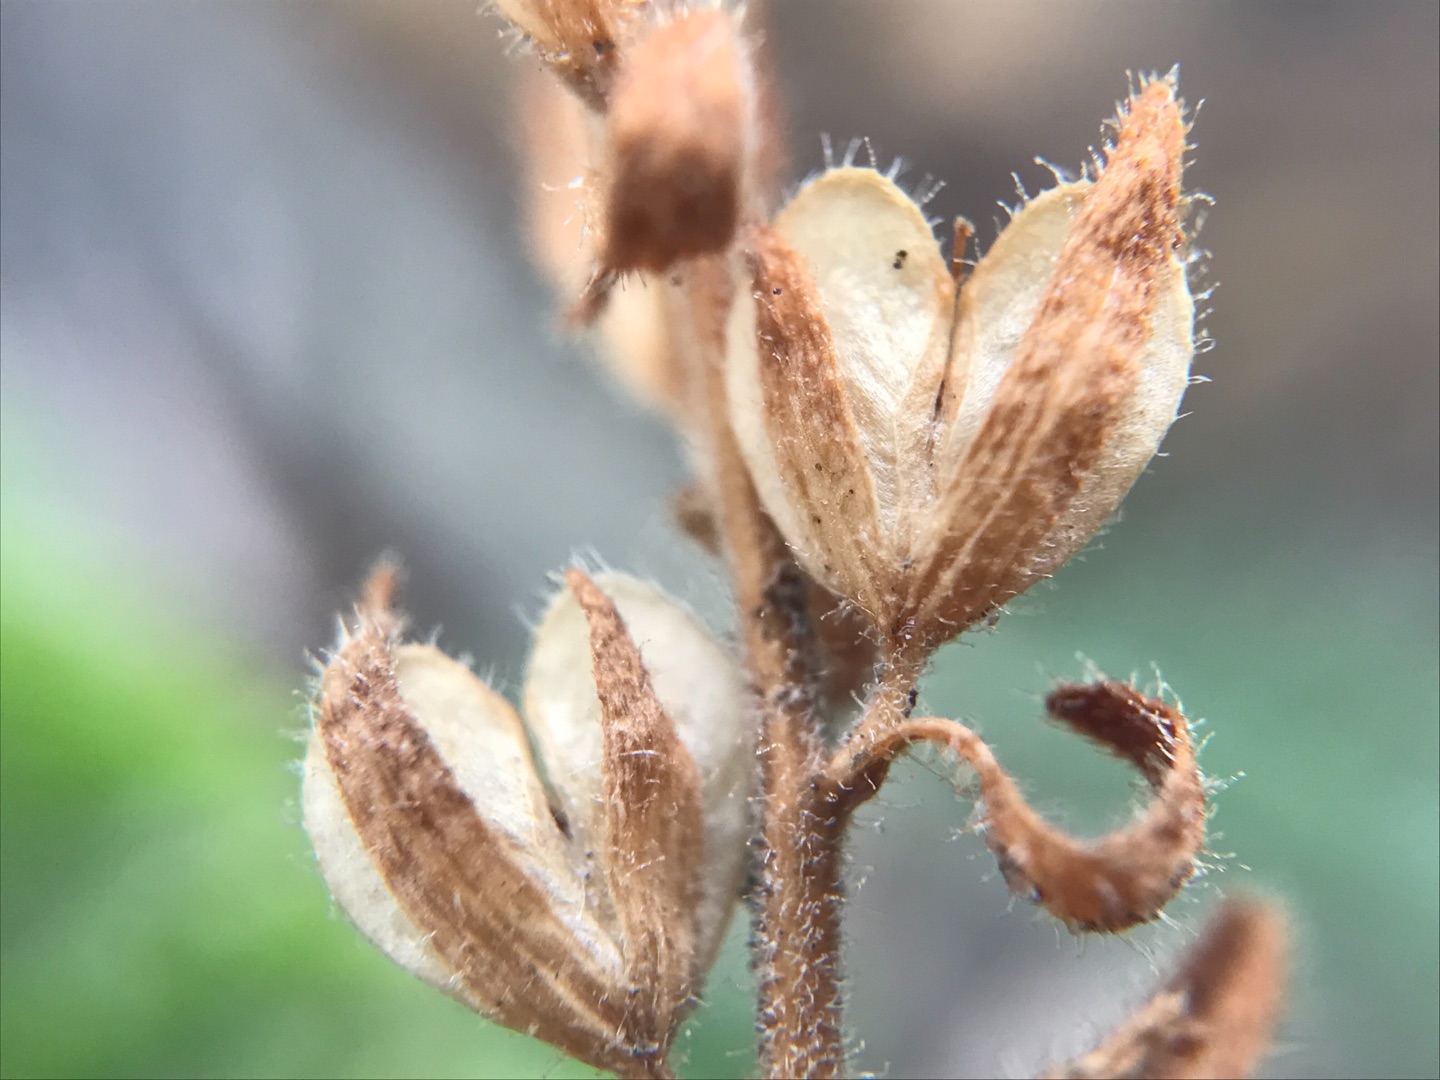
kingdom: Plantae
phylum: Tracheophyta
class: Magnoliopsida
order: Lamiales
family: Plantaginaceae
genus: Veronica
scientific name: Veronica arvensis
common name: Mark-ærenpris
